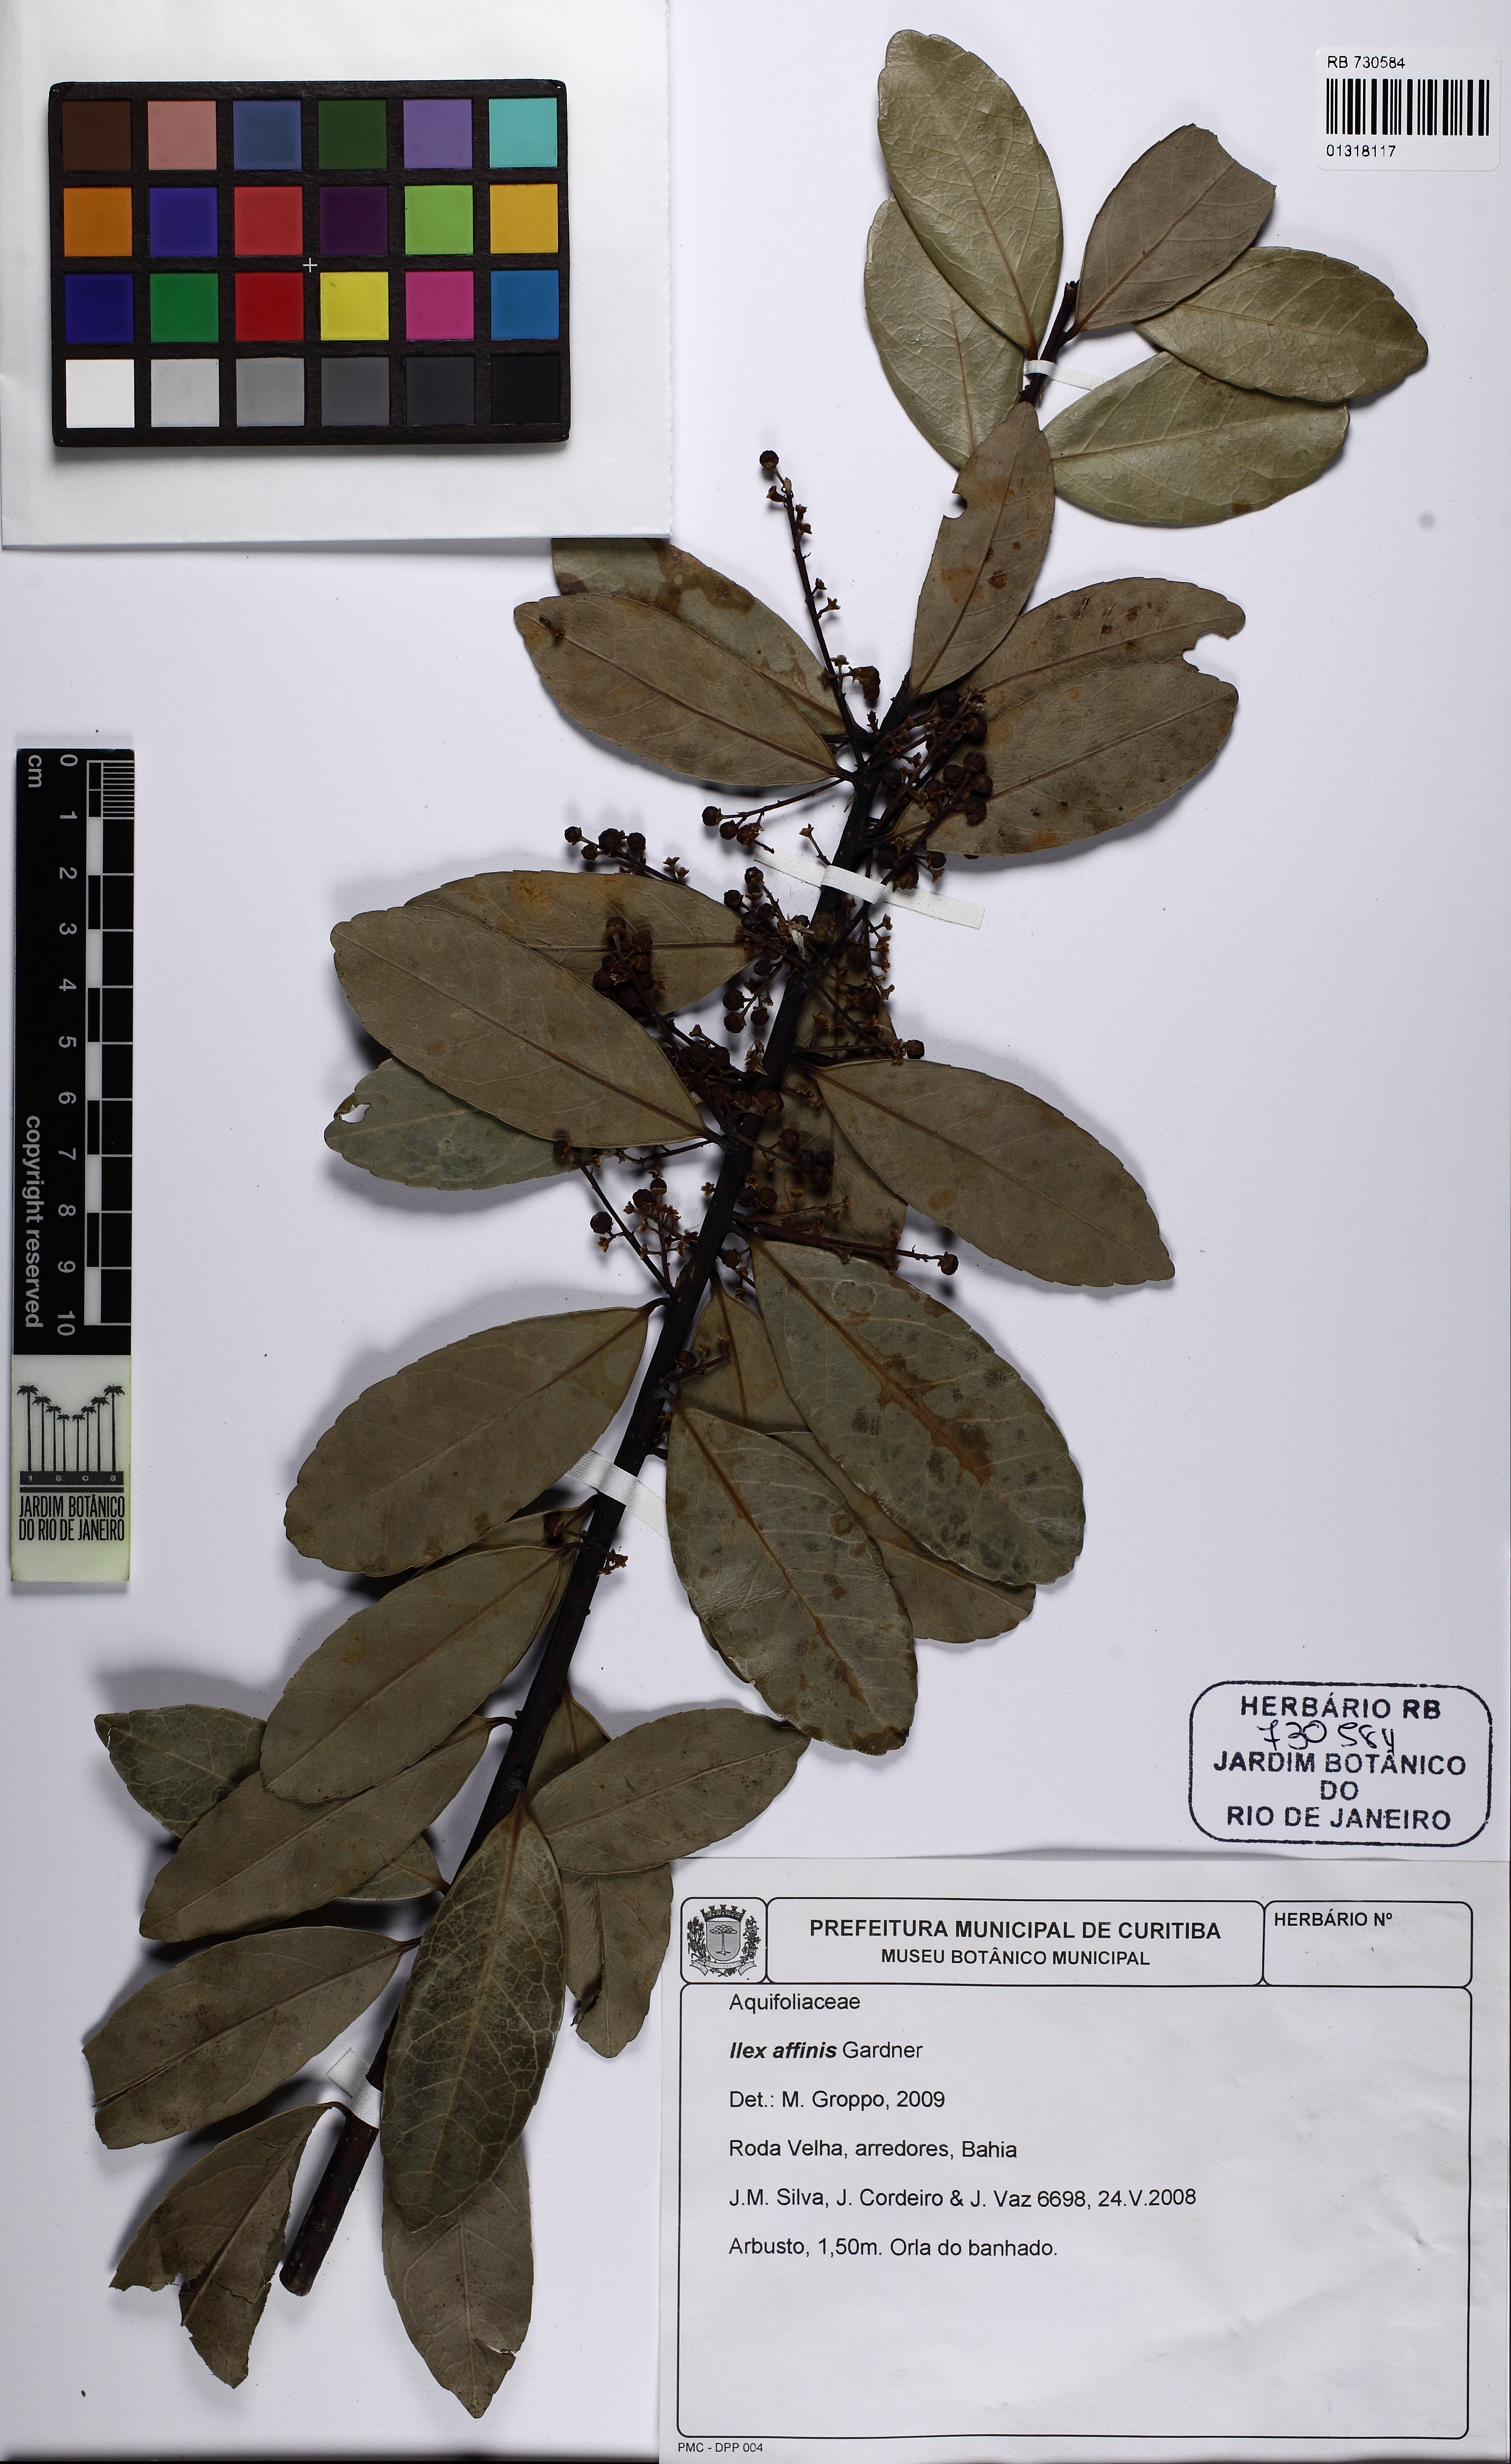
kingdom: Plantae
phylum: Tracheophyta
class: Magnoliopsida
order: Aquifoliales
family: Aquifoliaceae
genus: Ilex
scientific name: Ilex affinis
